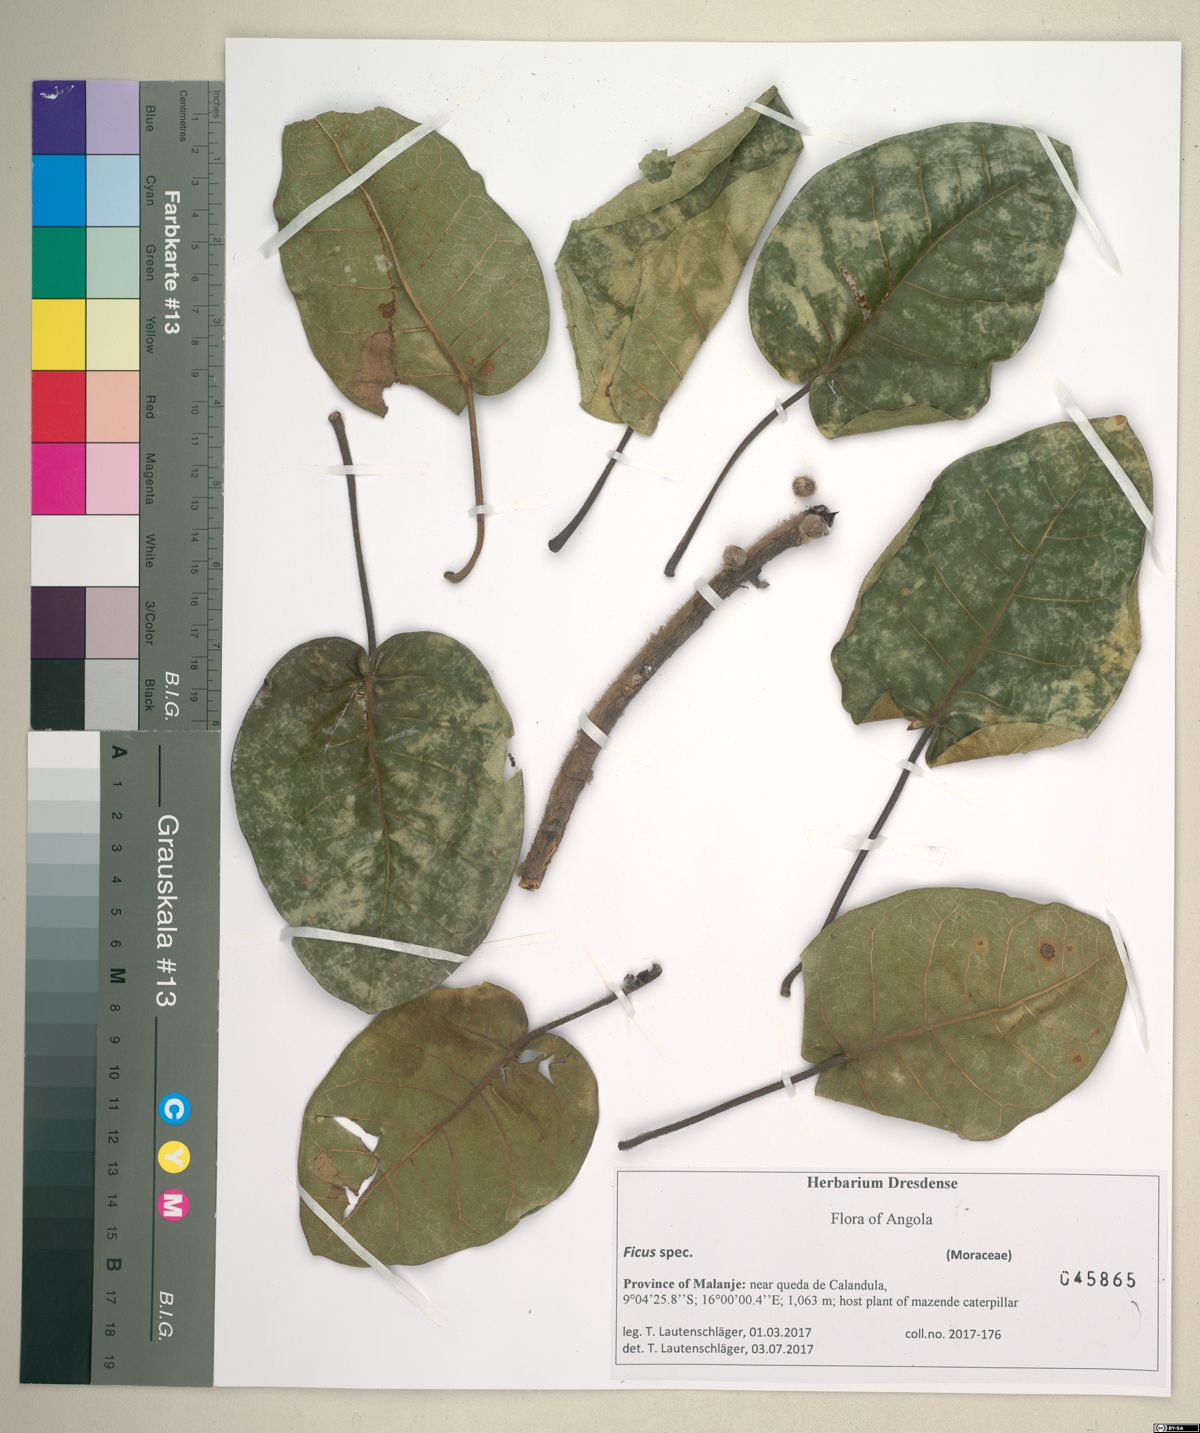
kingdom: Plantae
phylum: Tracheophyta
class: Magnoliopsida
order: Rosales
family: Moraceae
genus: Ficus
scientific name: Ficus
